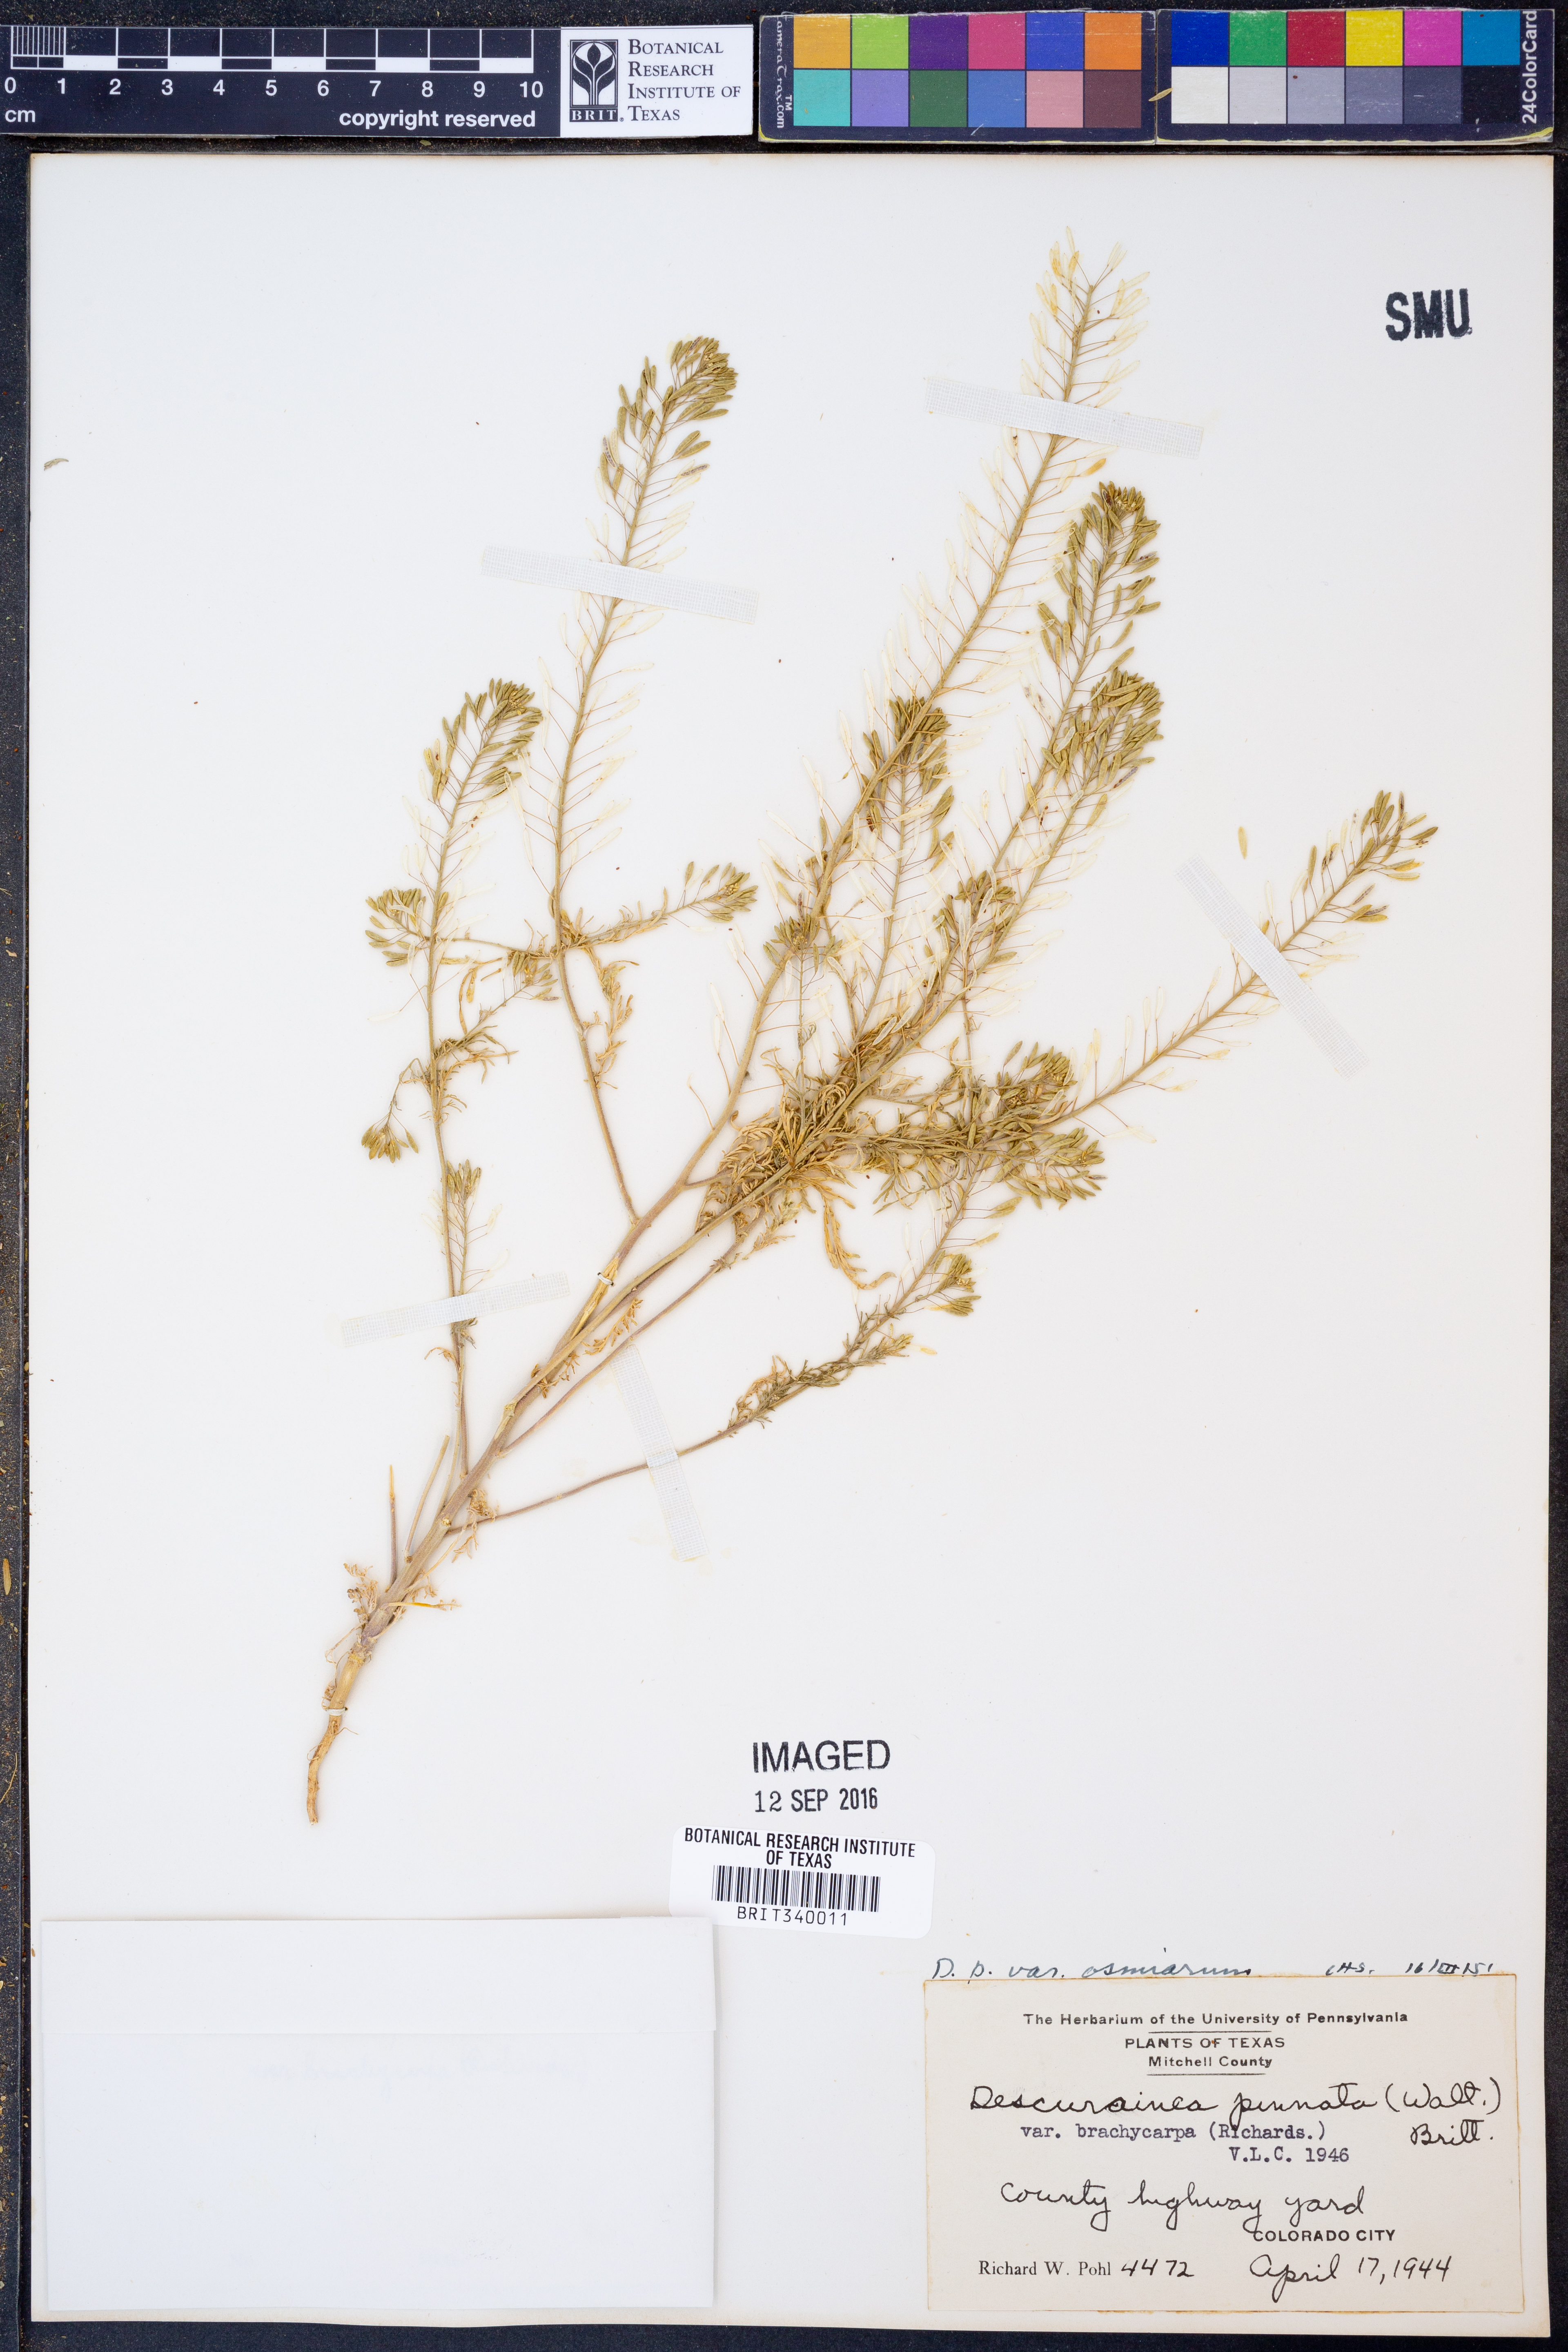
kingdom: Plantae
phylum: Tracheophyta
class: Magnoliopsida
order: Brassicales
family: Brassicaceae
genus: Descurainia
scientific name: Descurainia pinnata
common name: Western tansy mustard
